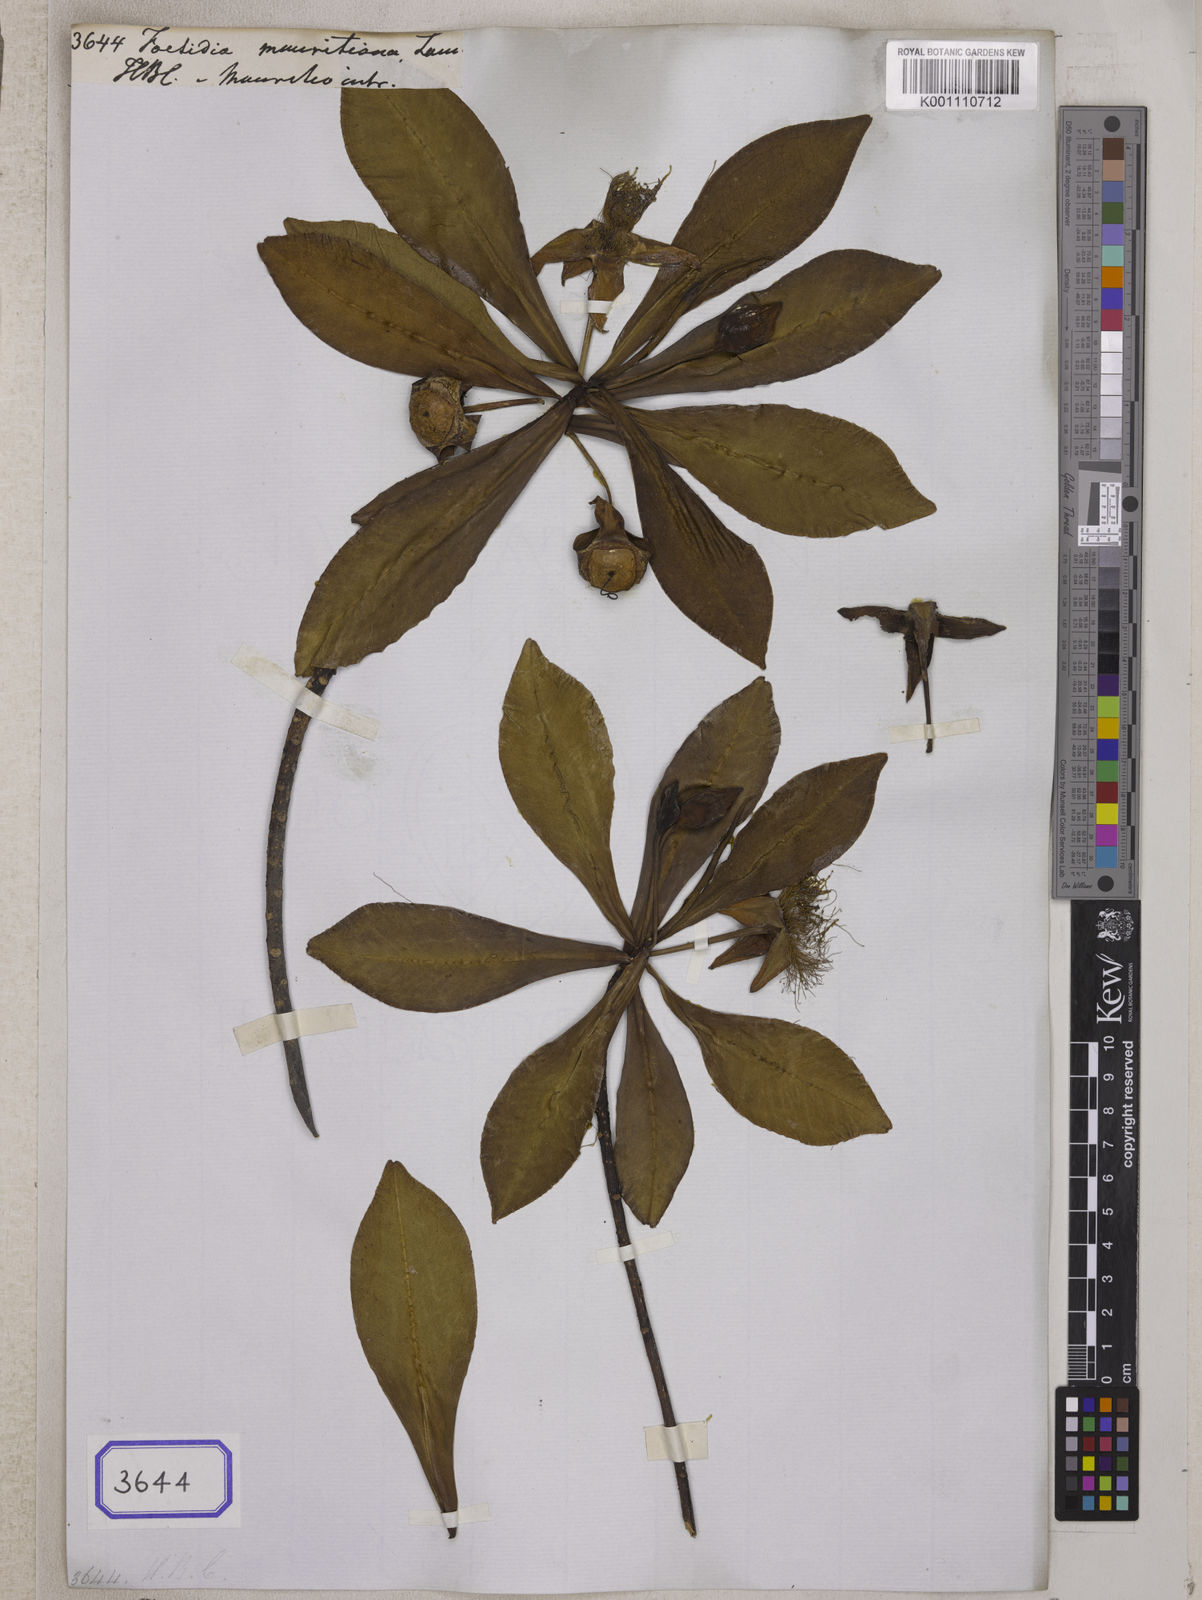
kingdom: Plantae
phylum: Tracheophyta
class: Magnoliopsida
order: Ericales
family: Lecythidaceae
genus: Foetidia
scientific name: Foetidia mauritiana
